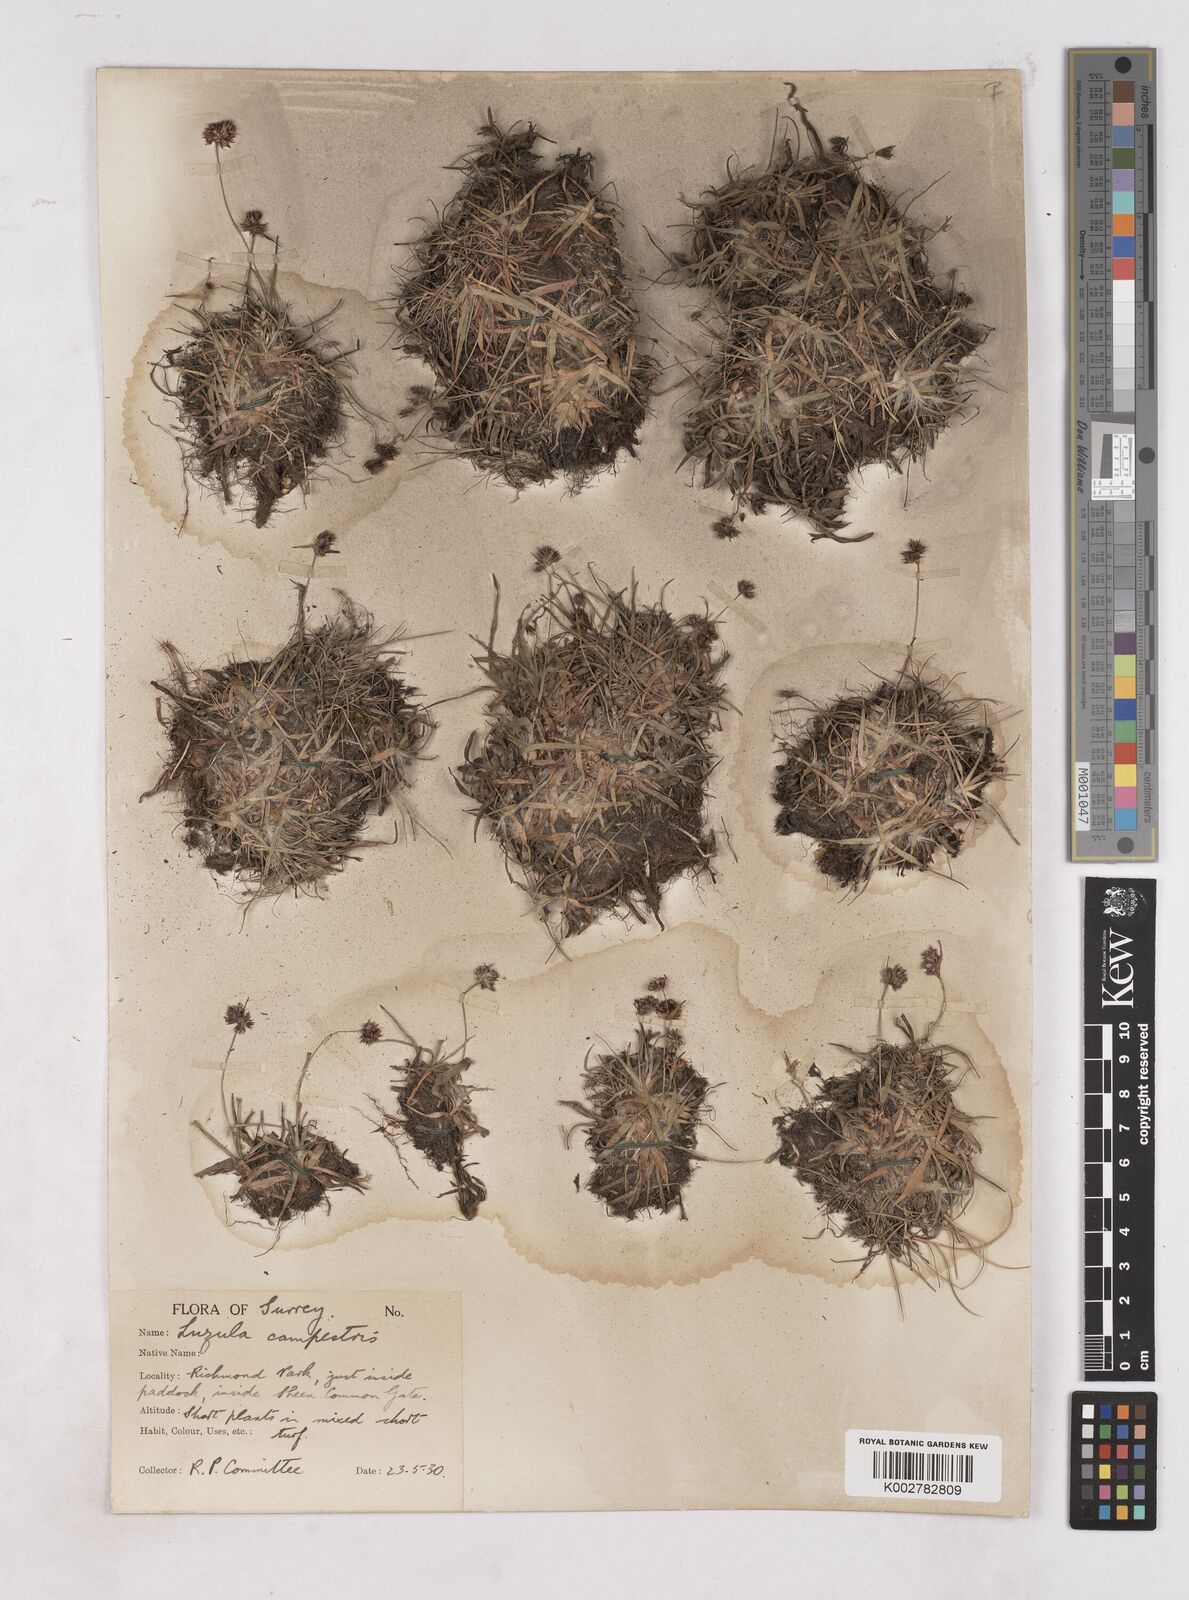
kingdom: Plantae
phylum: Tracheophyta
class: Liliopsida
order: Poales
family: Juncaceae
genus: Luzula
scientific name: Luzula campestris
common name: Field wood-rush
